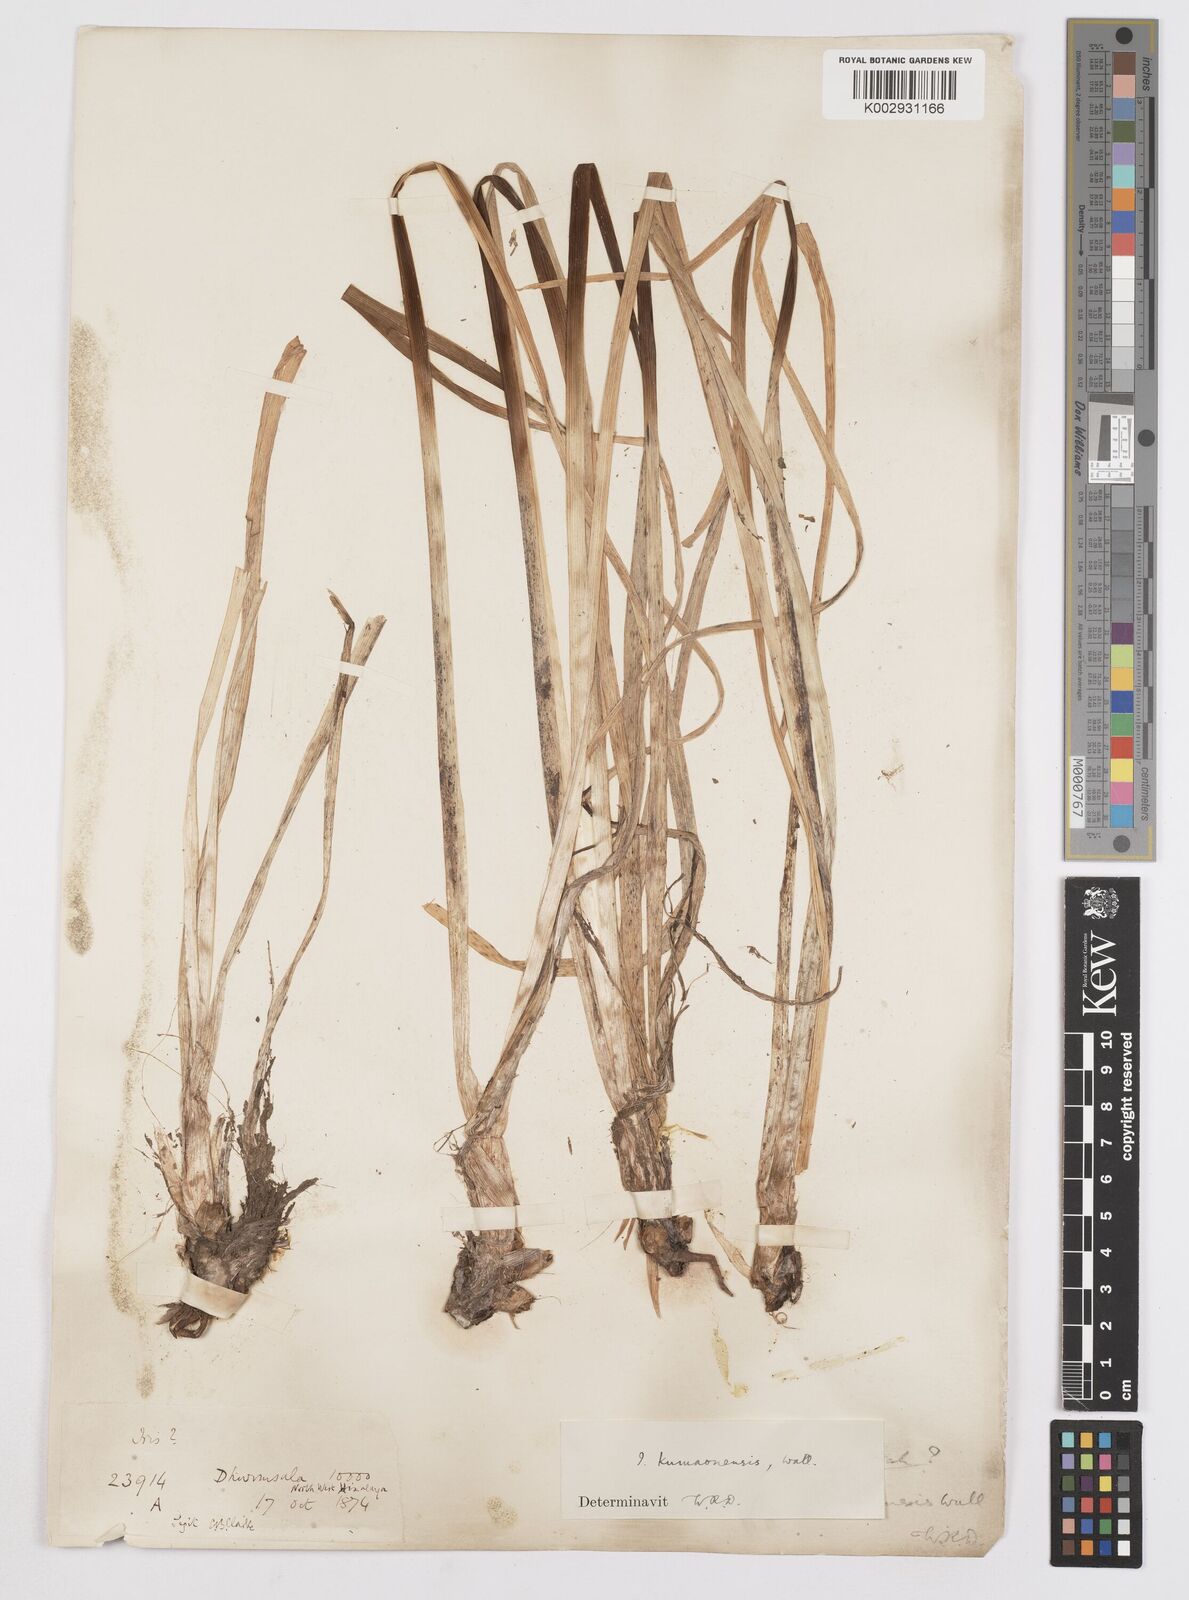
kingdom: Plantae
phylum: Tracheophyta
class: Liliopsida
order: Asparagales
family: Iridaceae
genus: Iris
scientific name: Iris kemaonensis
